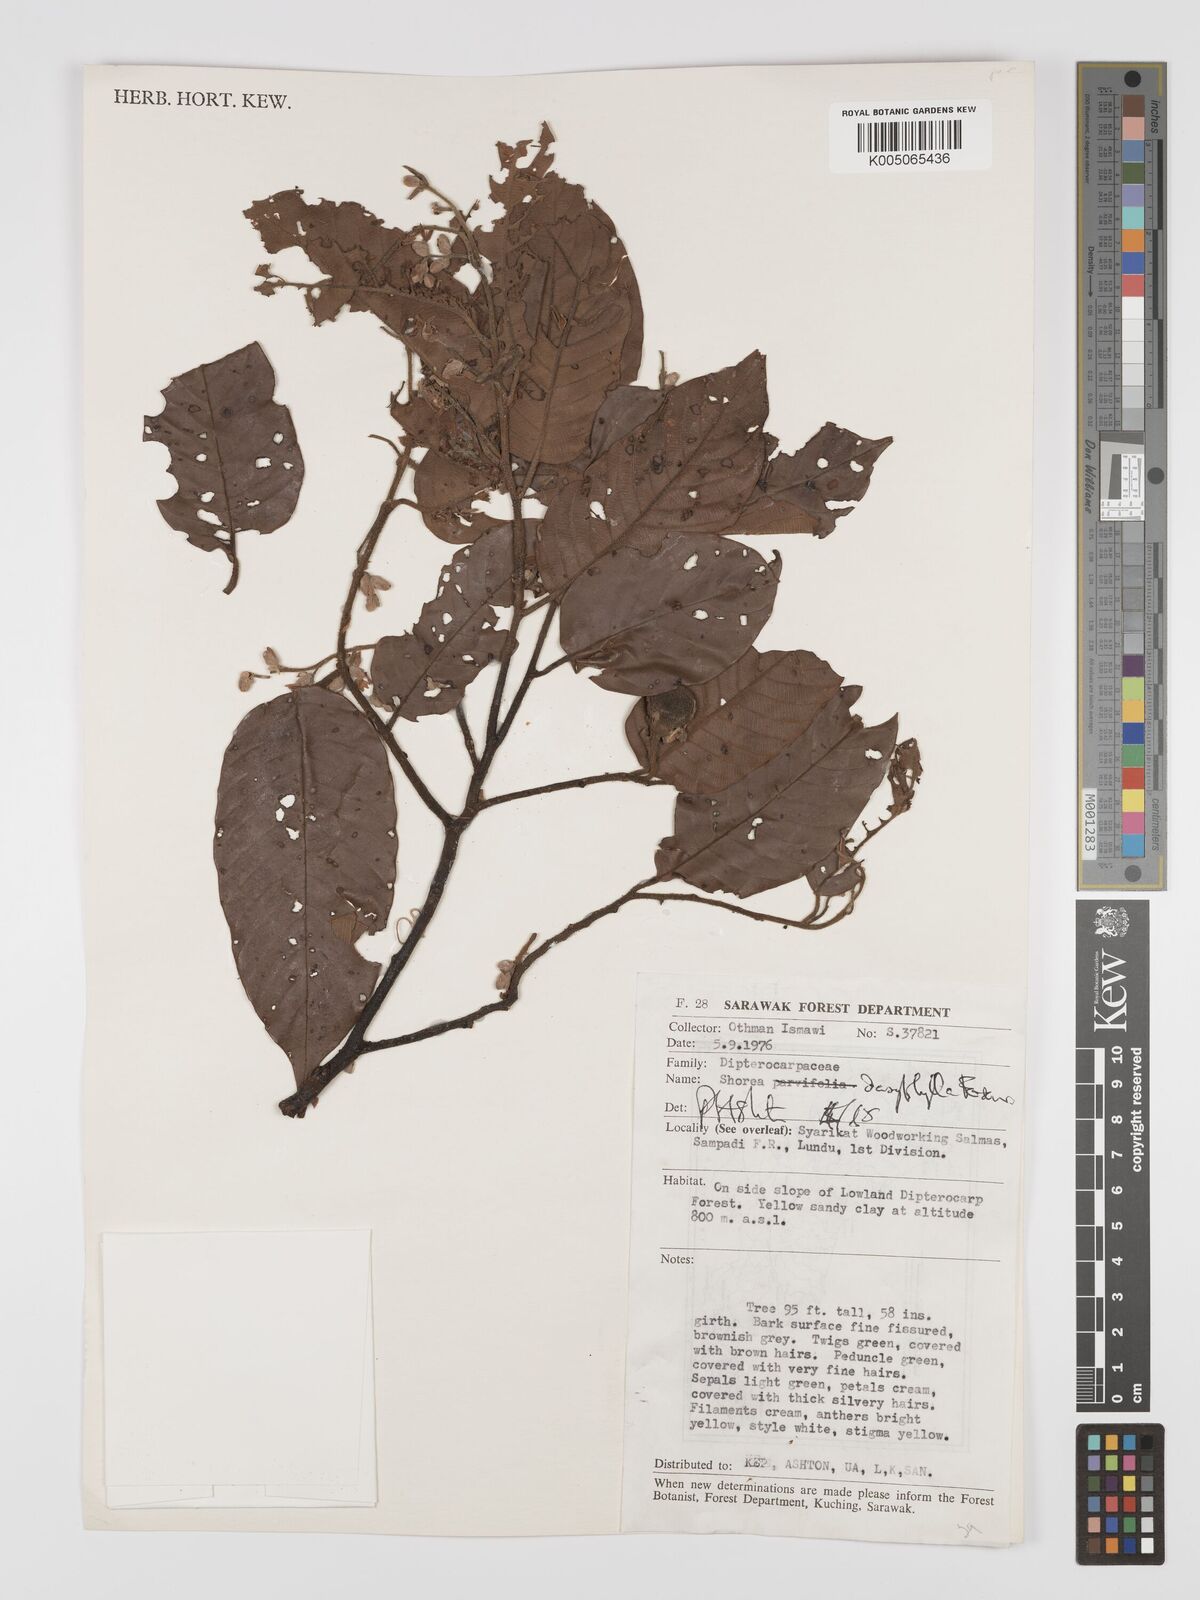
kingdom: Plantae
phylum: Tracheophyta
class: Magnoliopsida
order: Malvales
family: Dipterocarpaceae
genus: Shorea
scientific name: Shorea dasyphylla
